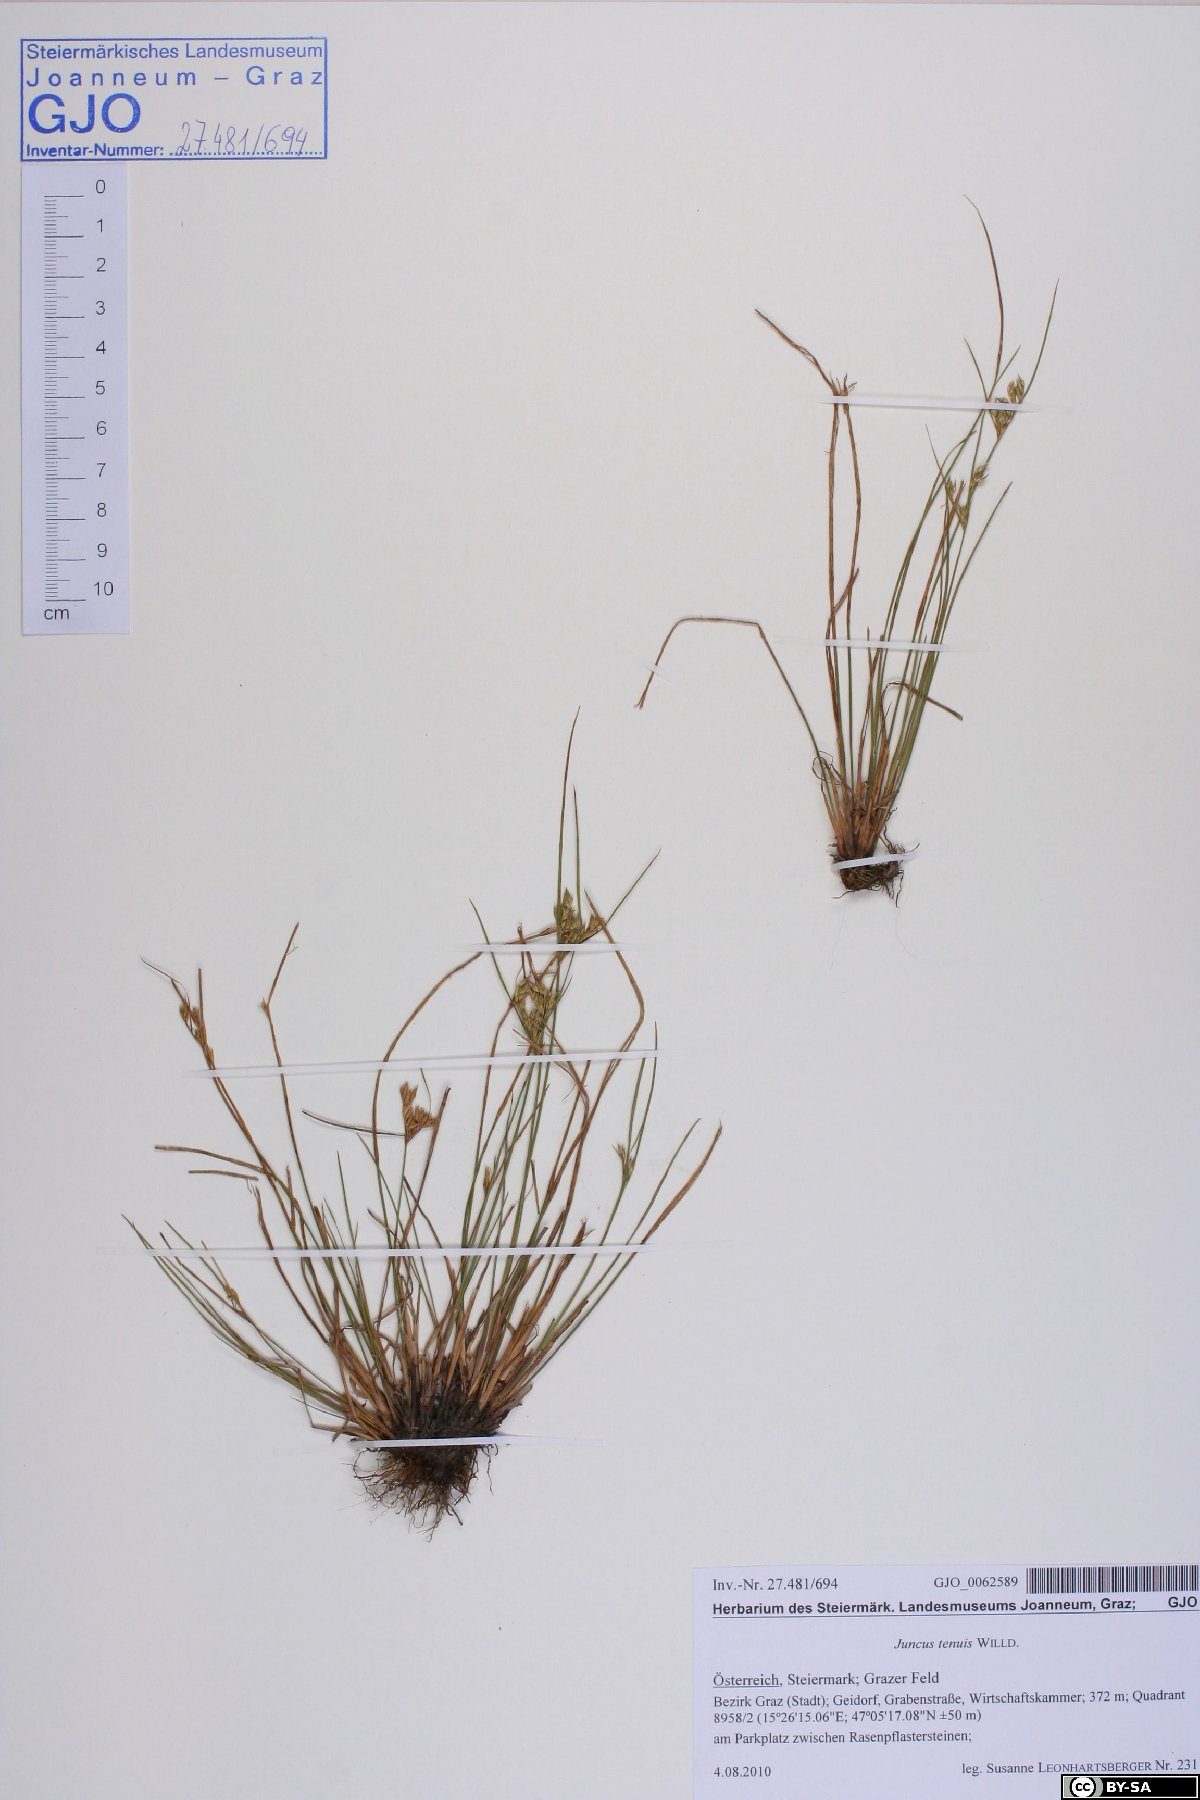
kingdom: Plantae
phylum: Tracheophyta
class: Liliopsida
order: Poales
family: Juncaceae
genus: Juncus
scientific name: Juncus tenuis
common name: Slender rush
